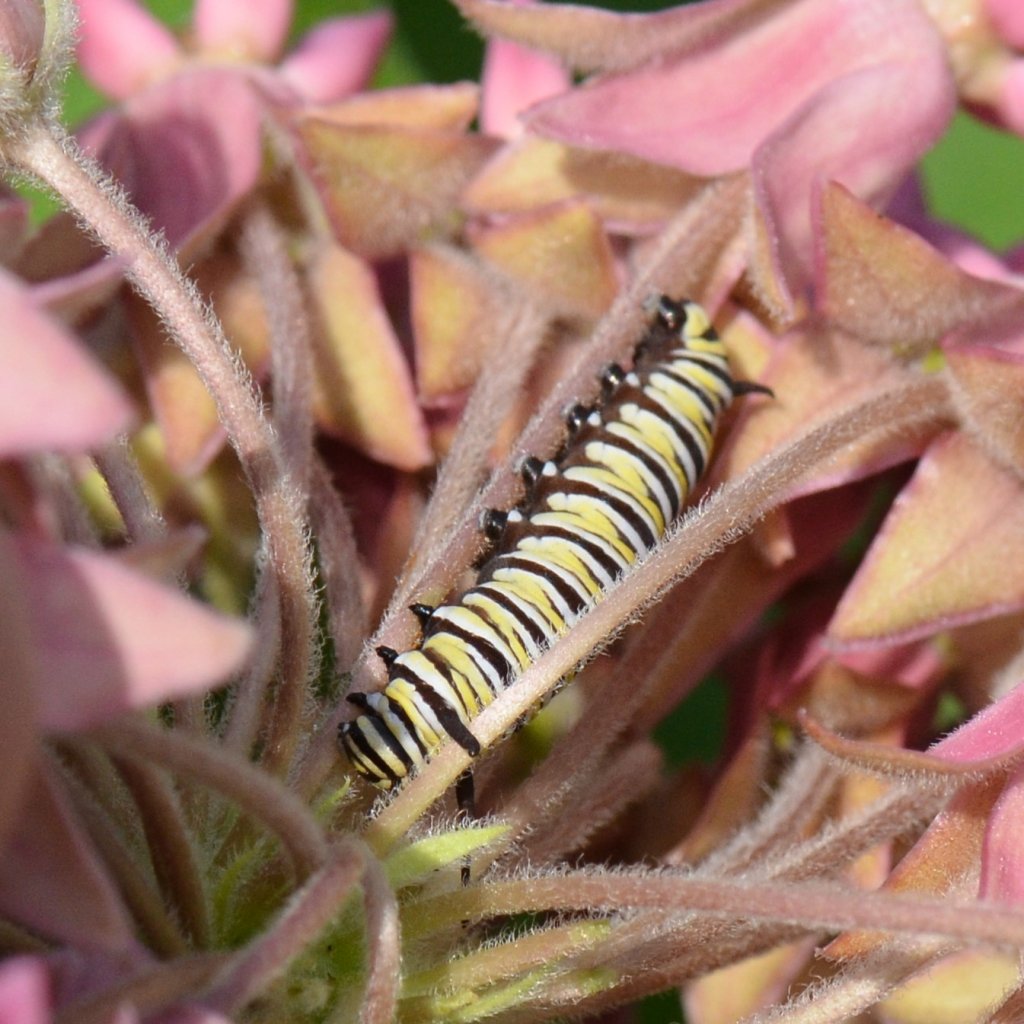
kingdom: Animalia
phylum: Arthropoda
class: Insecta
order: Lepidoptera
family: Nymphalidae
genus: Danaus
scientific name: Danaus plexippus
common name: Monarch
